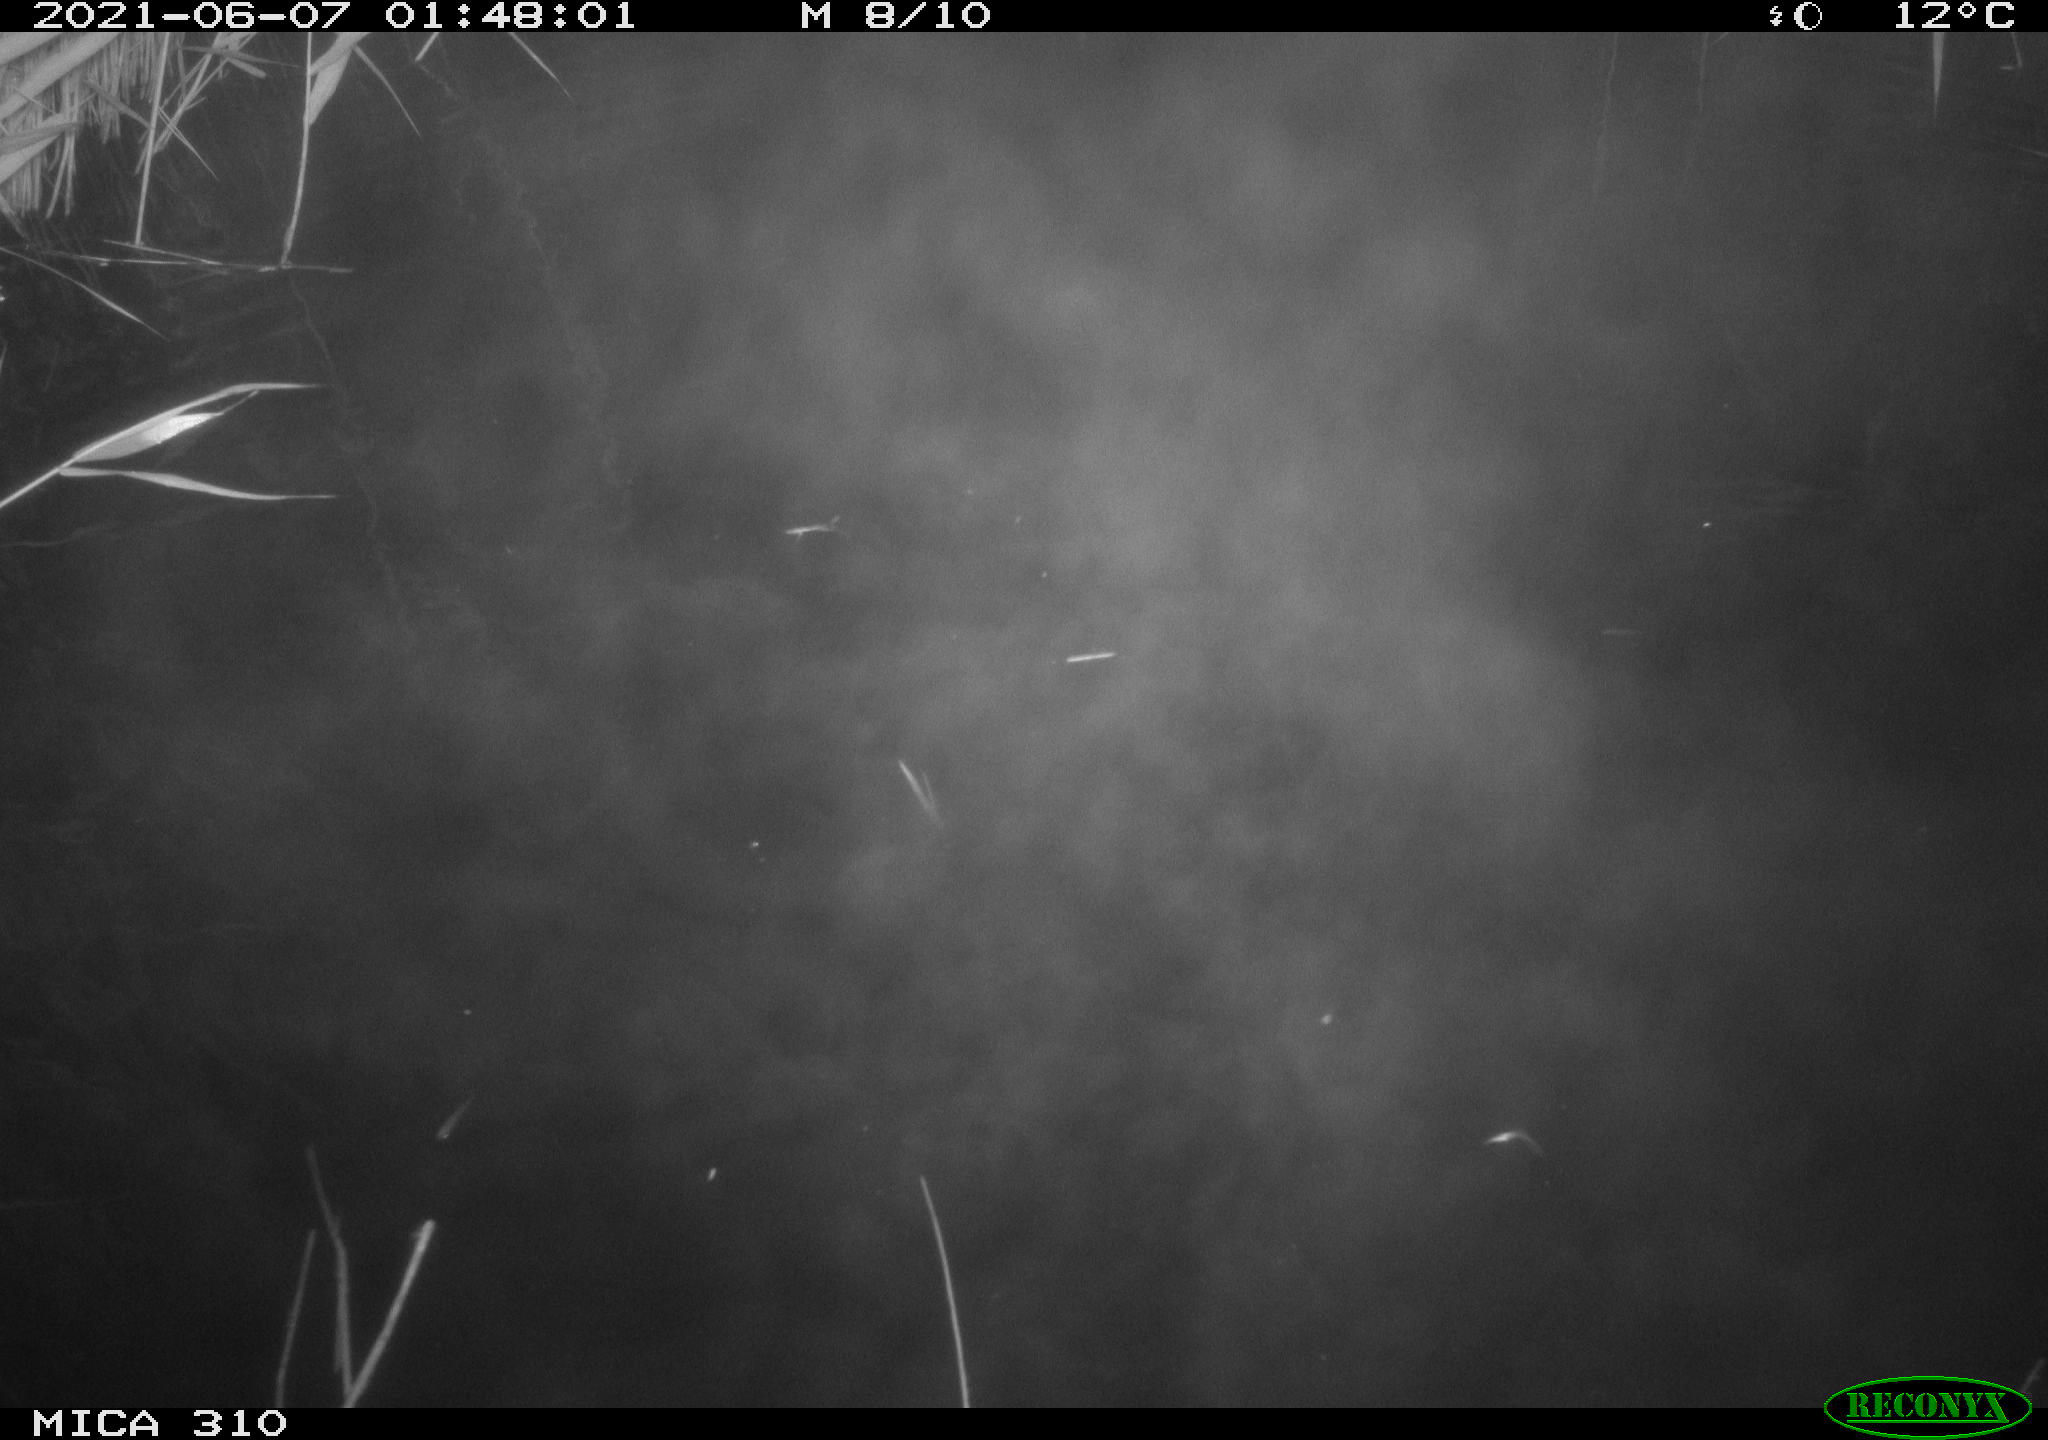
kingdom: Animalia
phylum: Chordata
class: Aves
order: Anseriformes
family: Anatidae
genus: Anas
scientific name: Anas
